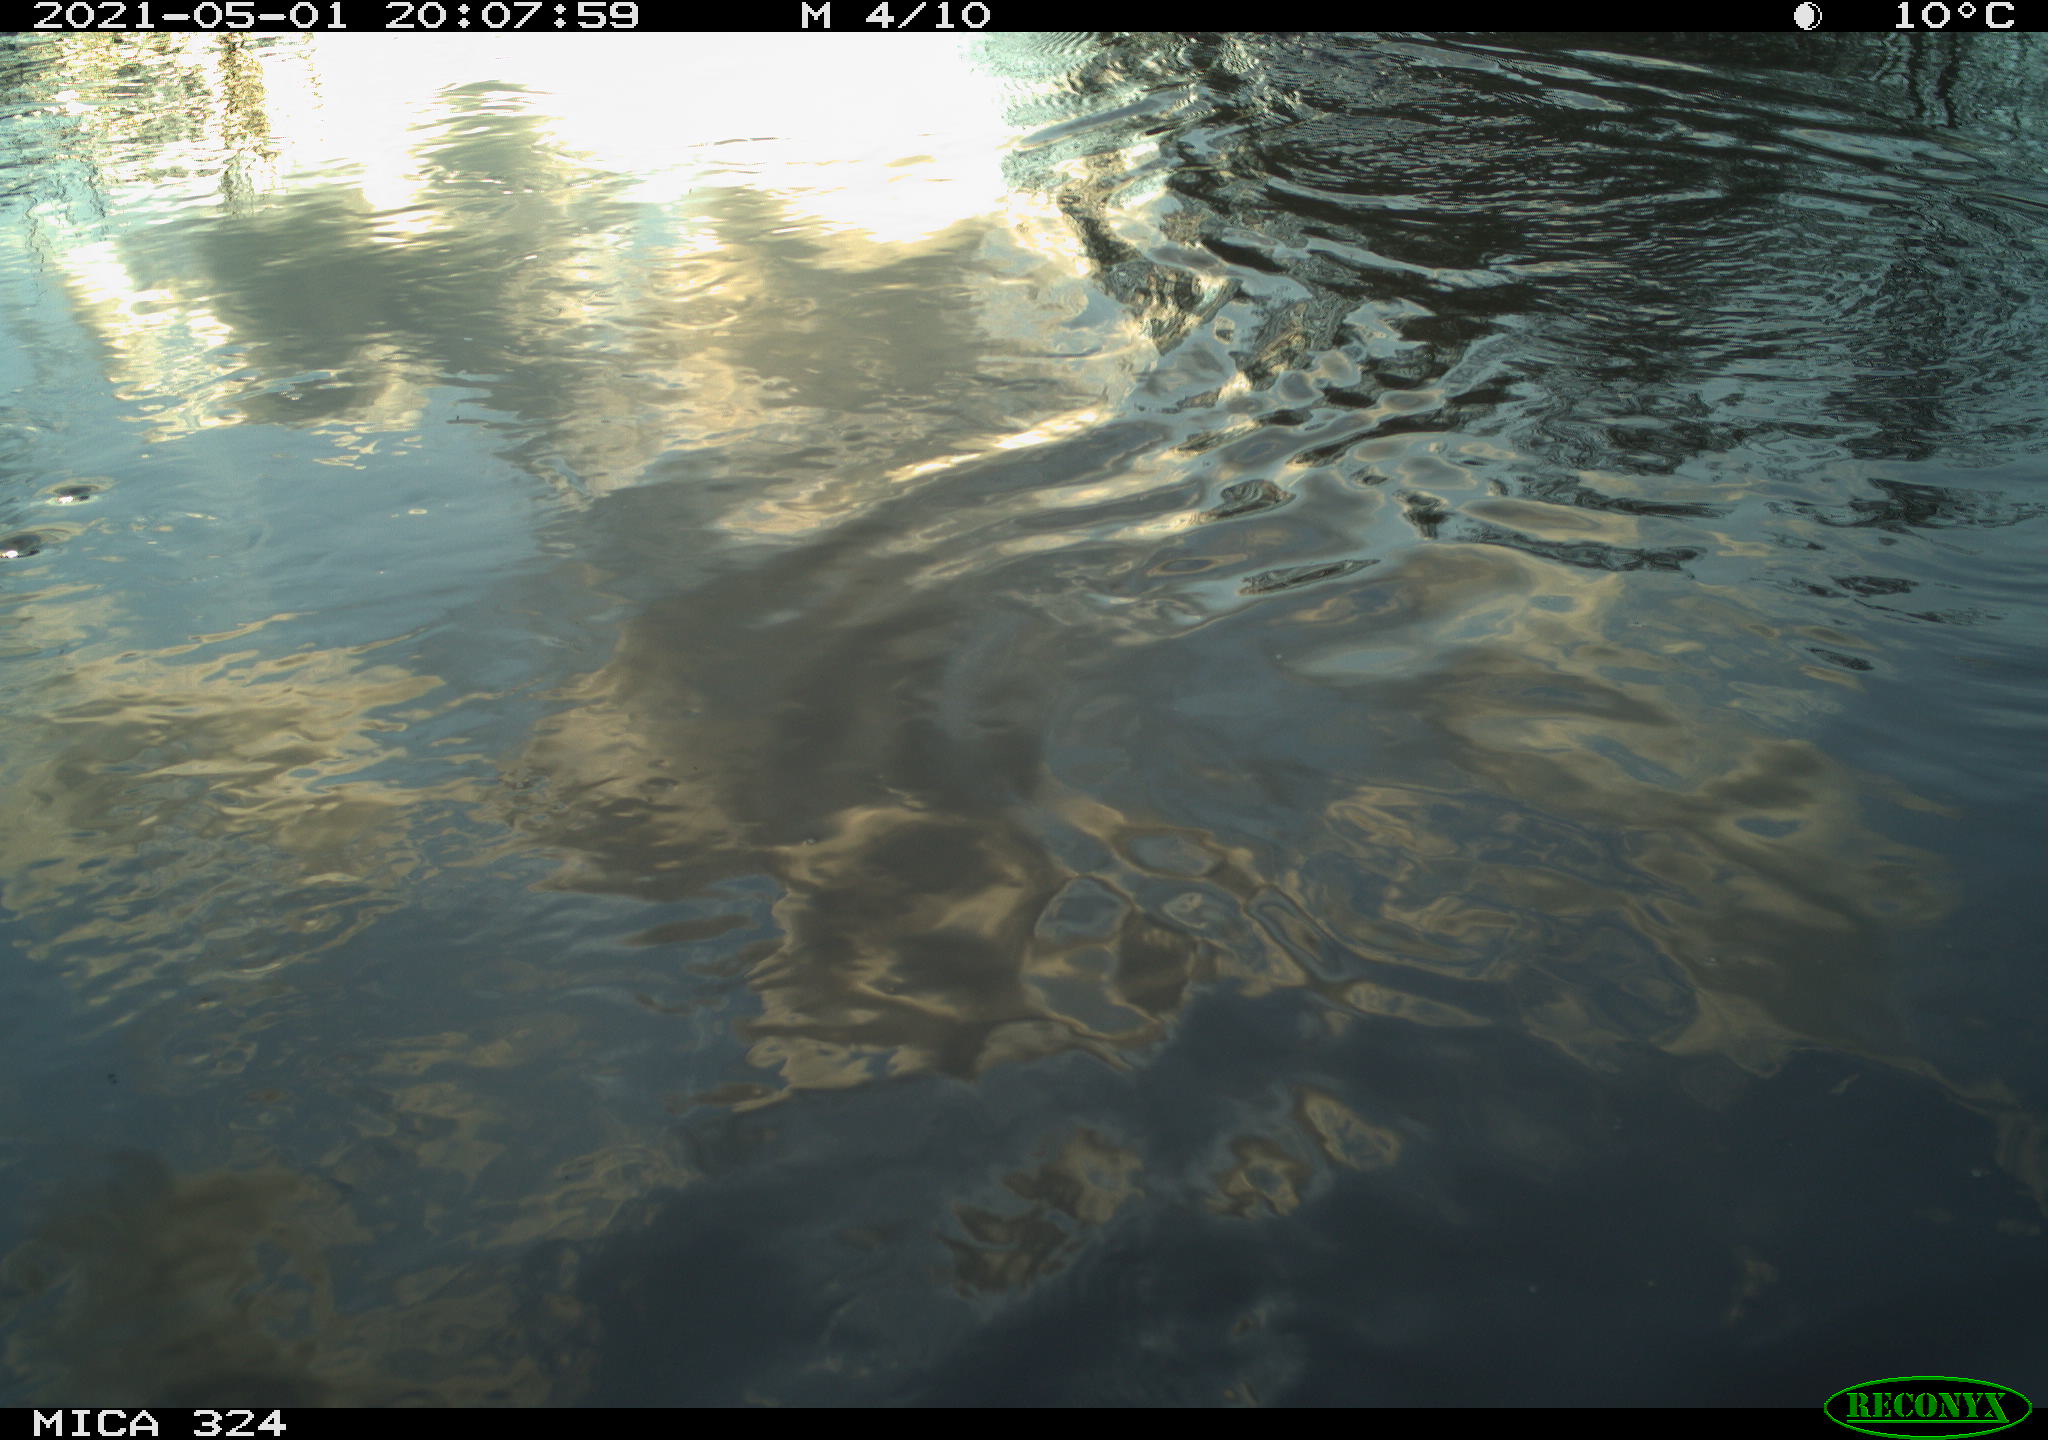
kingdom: Animalia
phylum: Chordata
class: Mammalia
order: Rodentia
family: Cricetidae
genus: Ondatra
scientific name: Ondatra zibethicus
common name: Muskrat
